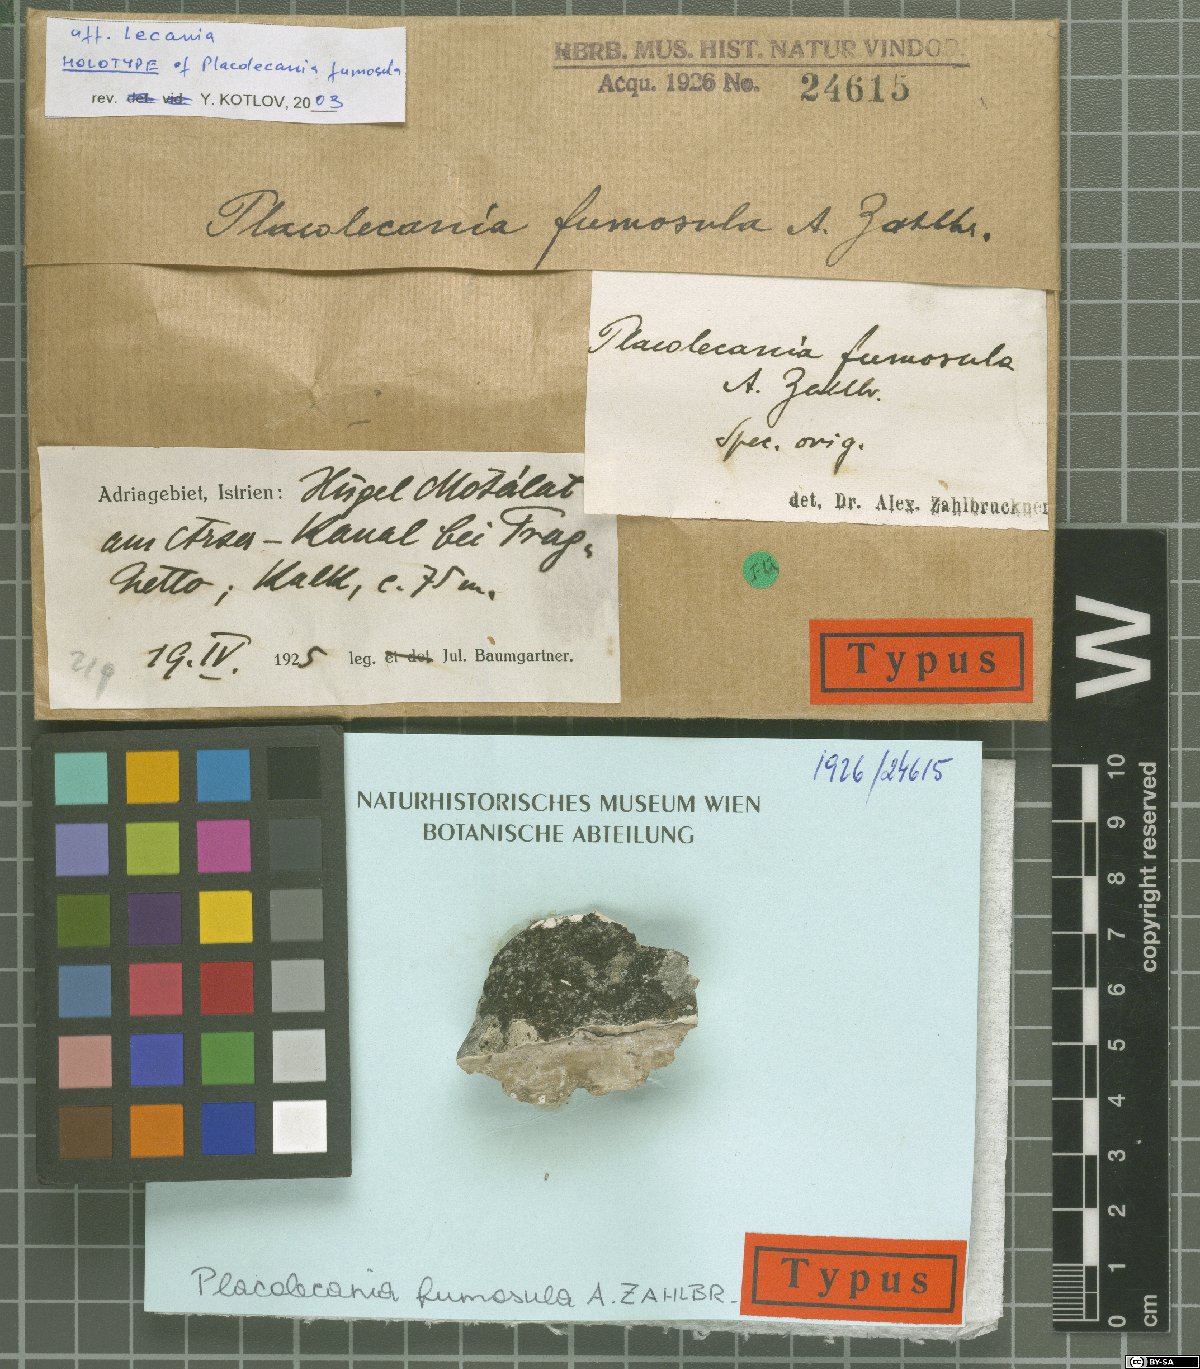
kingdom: Fungi
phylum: Ascomycota
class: Lecanoromycetes
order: Lecanorales
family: Catillariaceae
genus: Solenopsora
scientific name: Solenopsora fumosula
